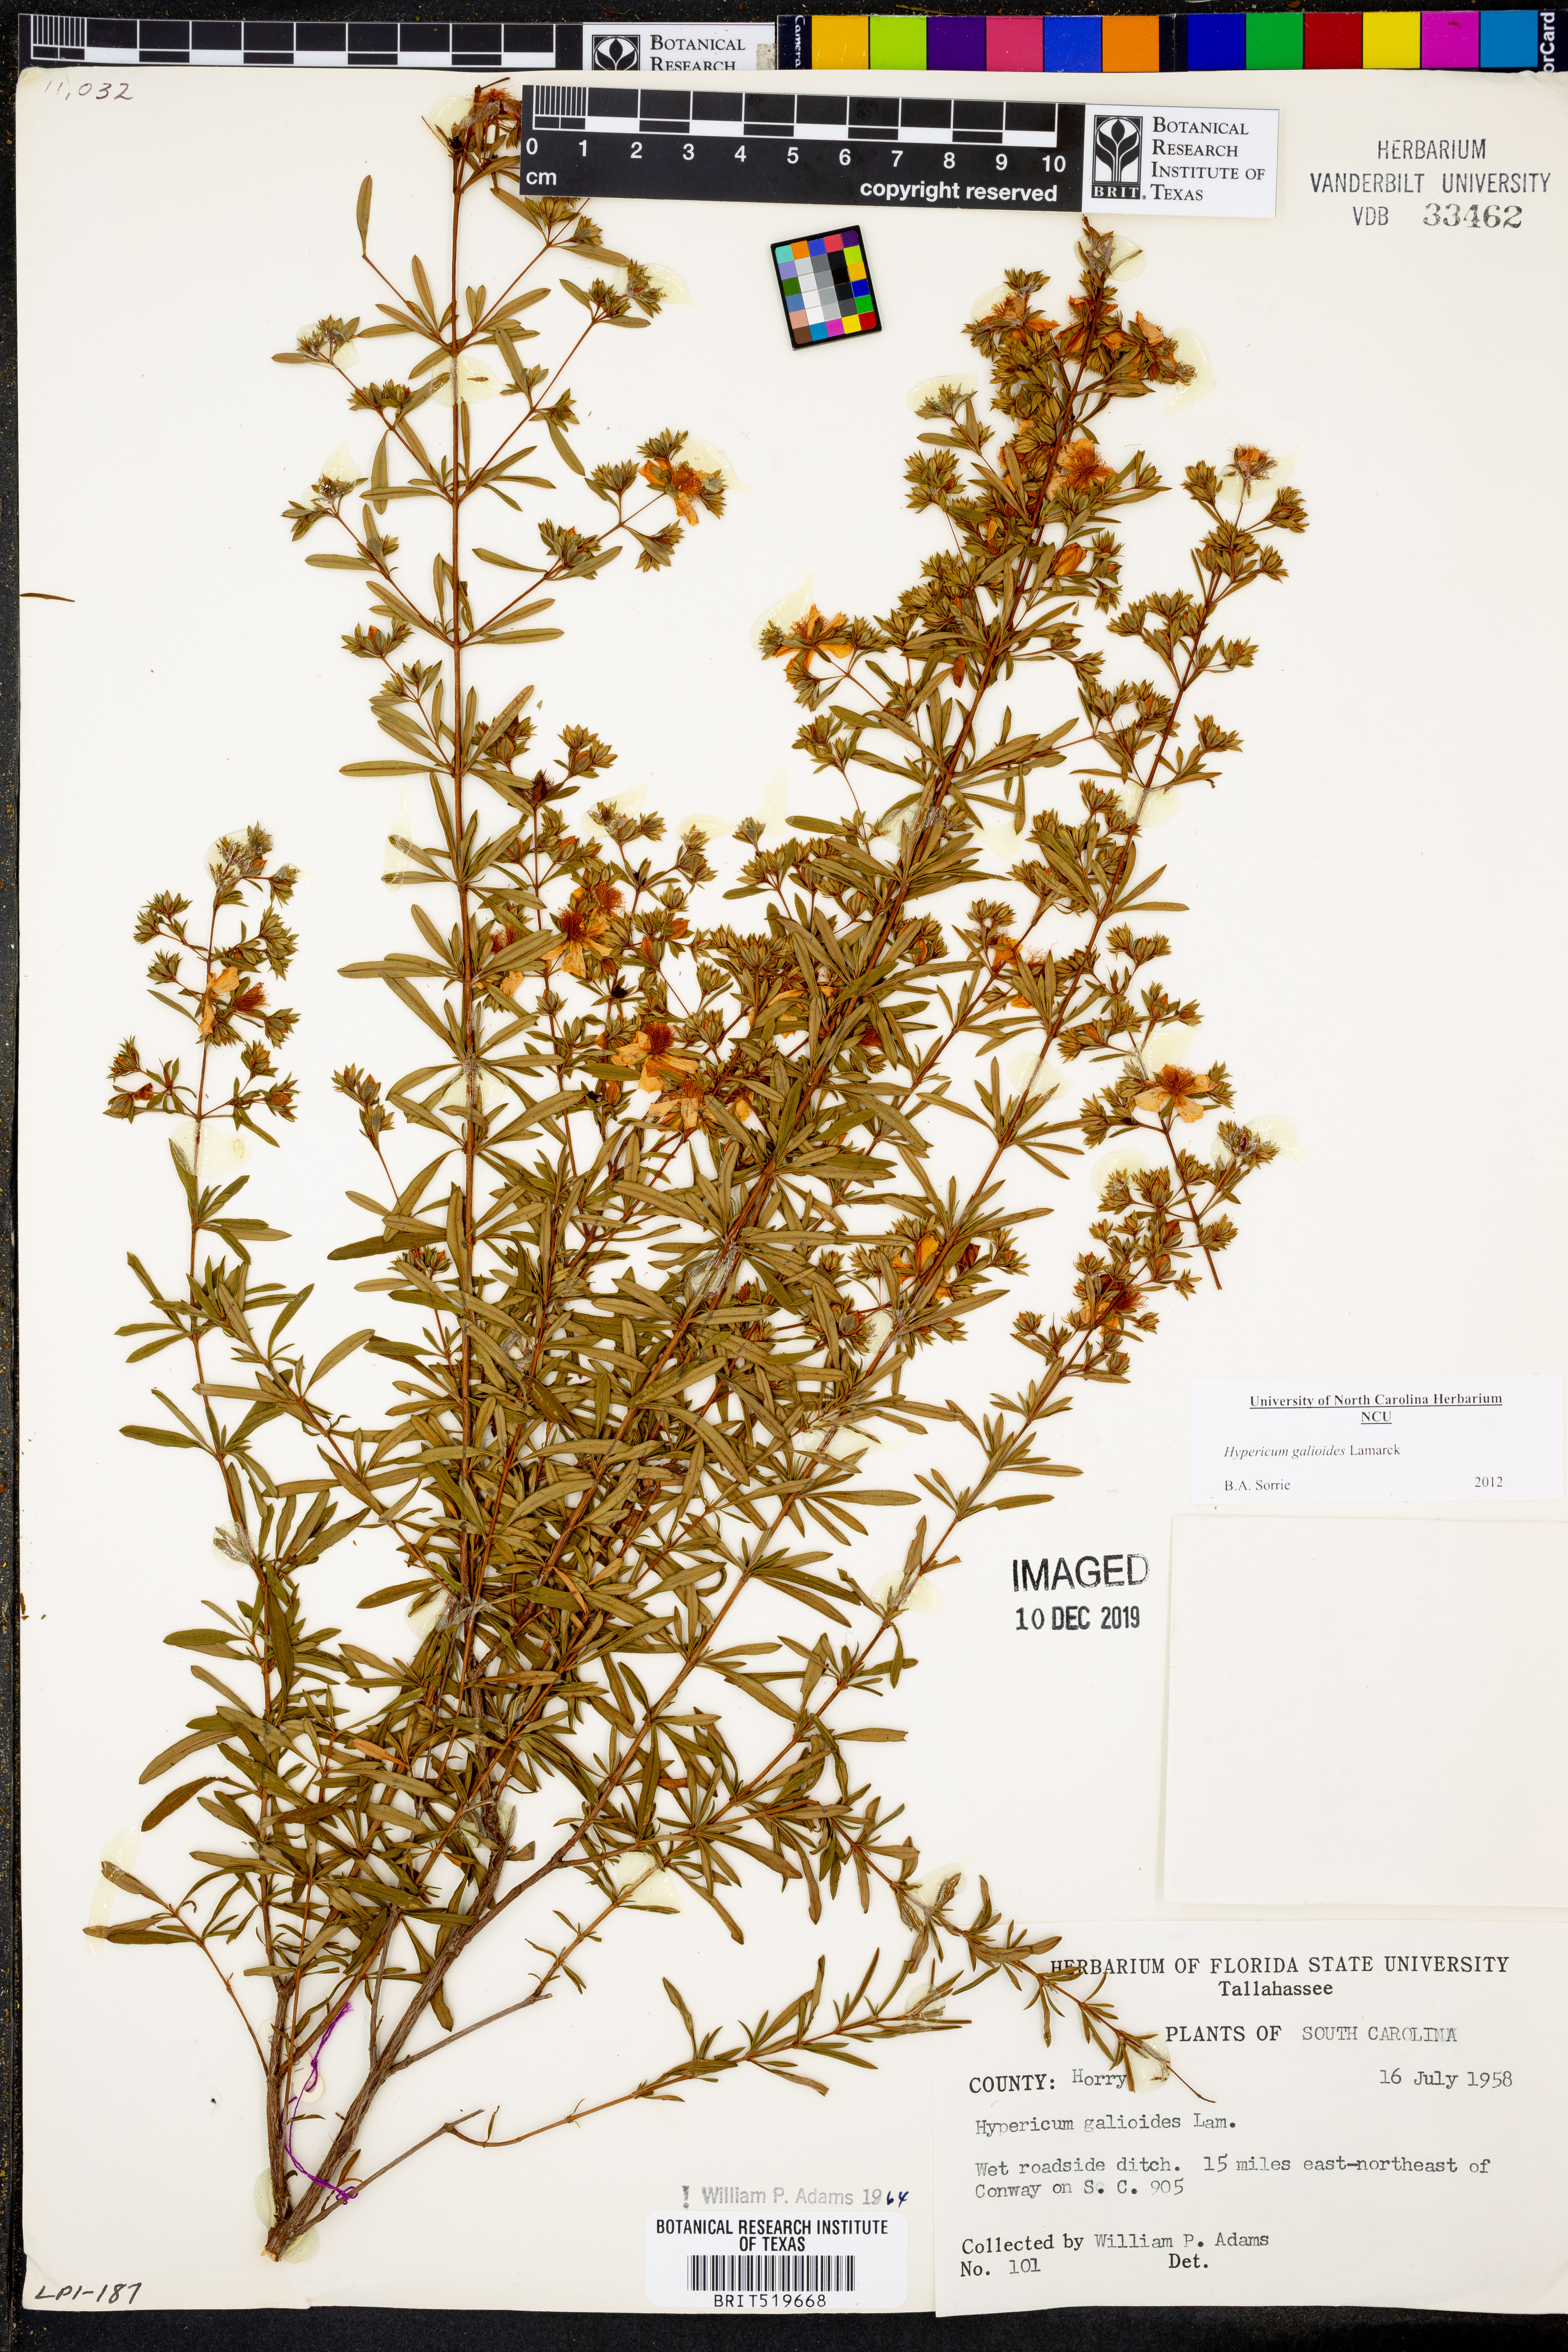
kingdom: Plantae
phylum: Tracheophyta
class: Magnoliopsida
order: Malpighiales
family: Hypericaceae
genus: Hypericum
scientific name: Hypericum galioides
